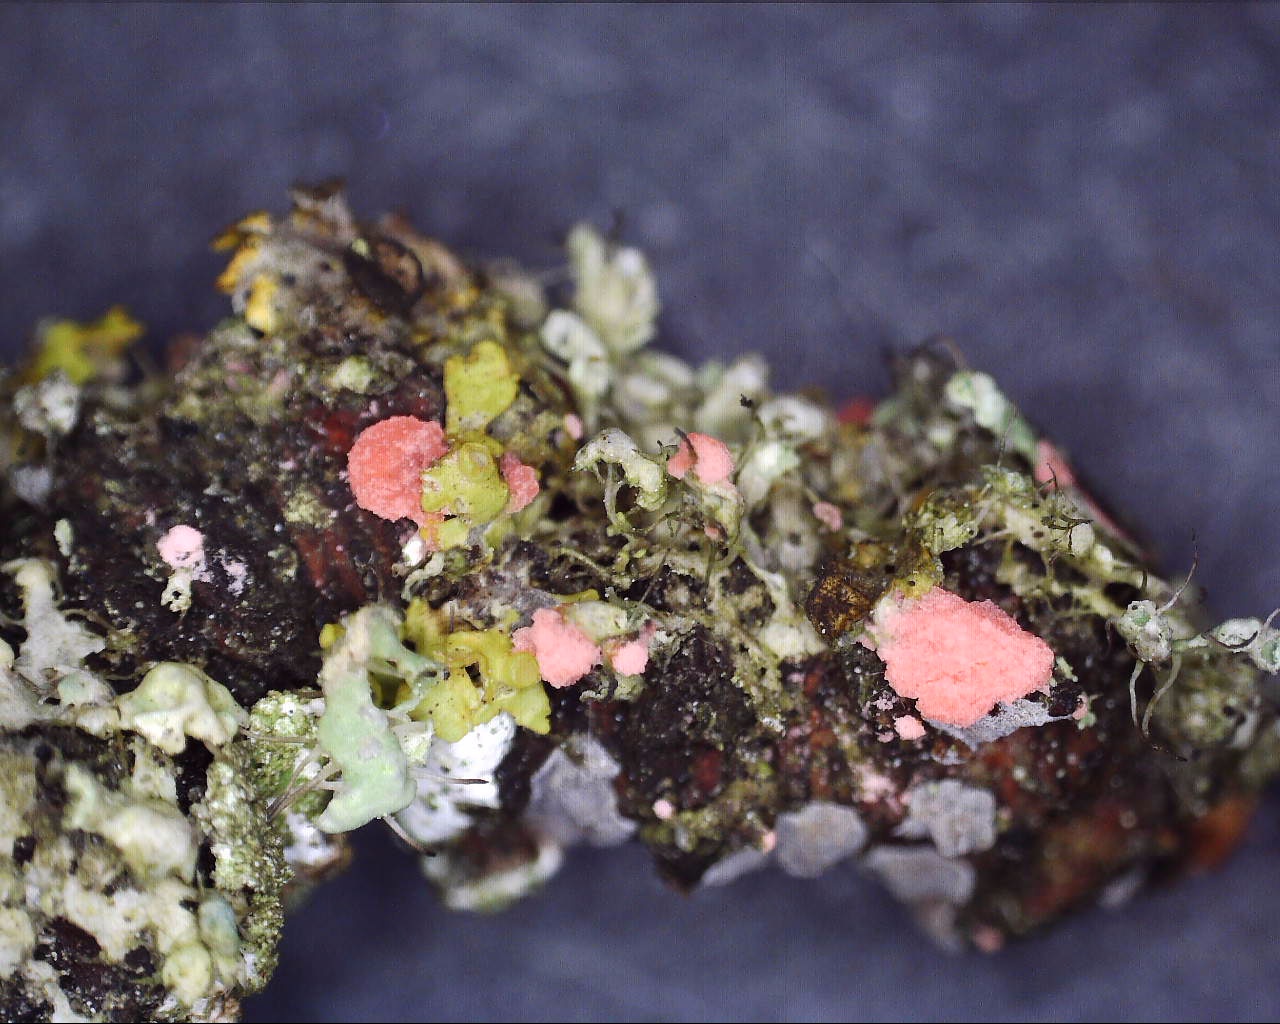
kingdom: Fungi
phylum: Ascomycota
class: Sordariomycetes
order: Hypocreales
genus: Illosporiopsis
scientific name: Illosporiopsis christiansenii
